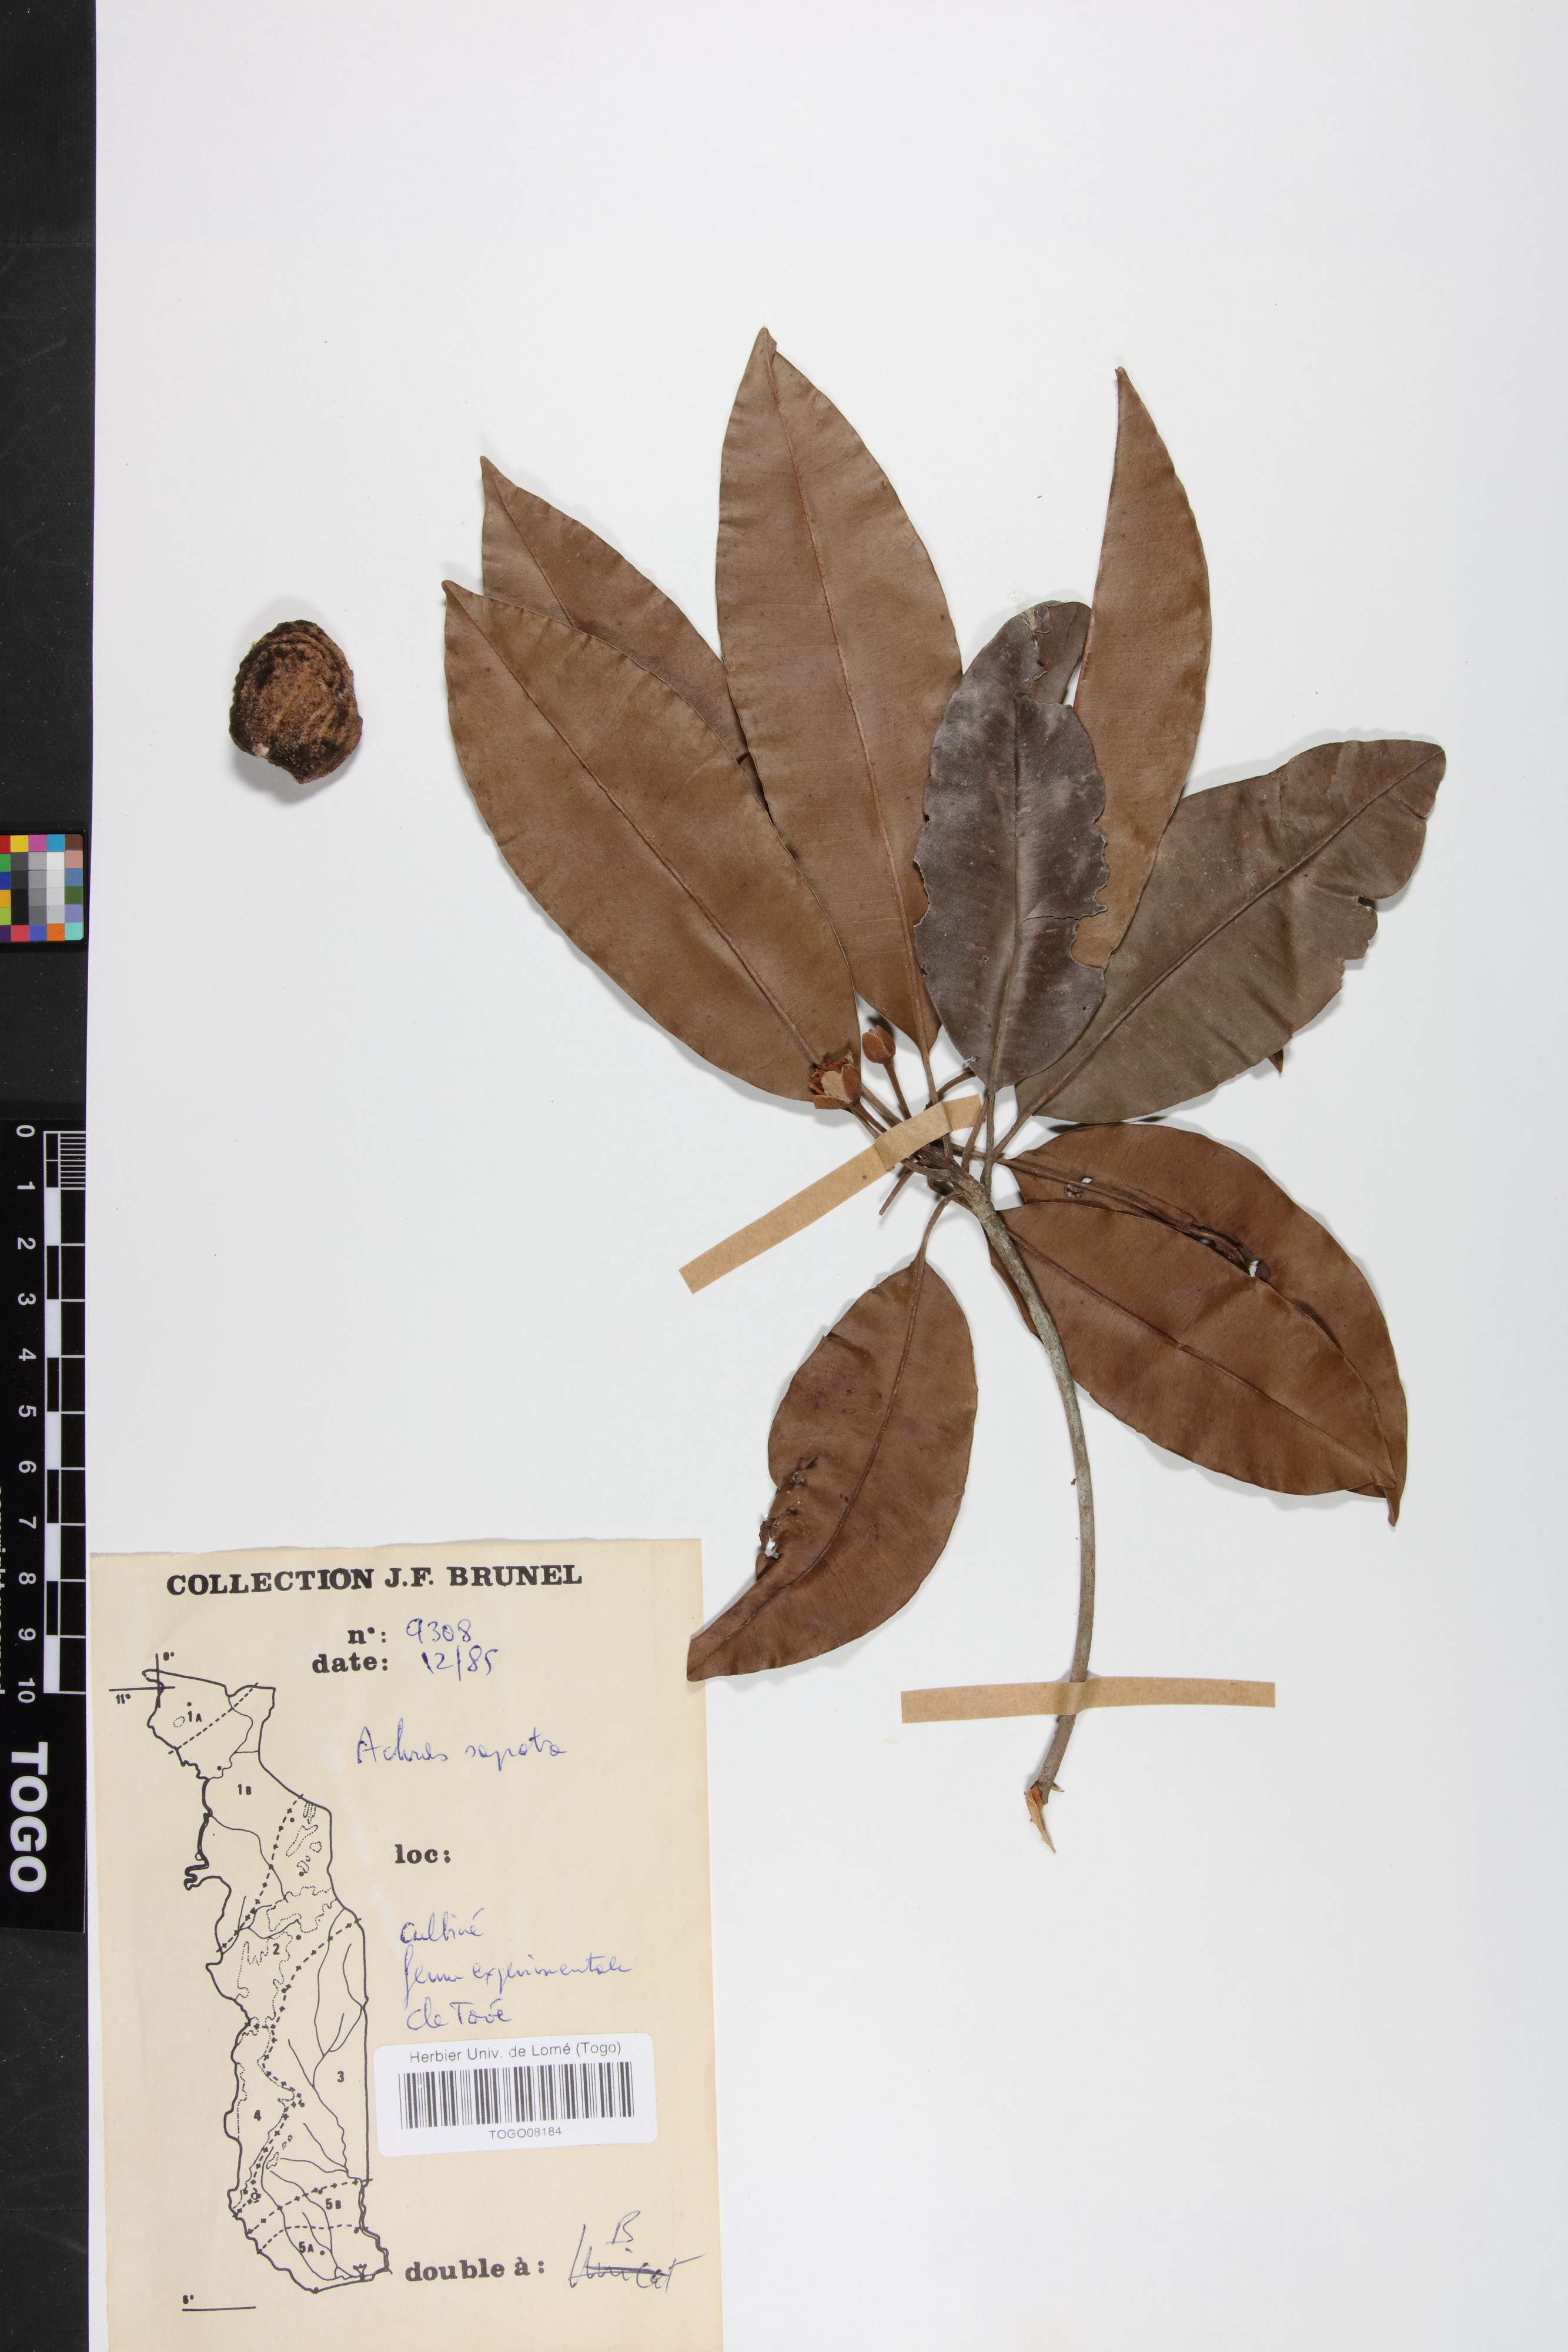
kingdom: Plantae
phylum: Tracheophyta
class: Magnoliopsida
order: Ericales
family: Sapotaceae
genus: Manilkara
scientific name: Manilkara zapota
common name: Sapodilla
